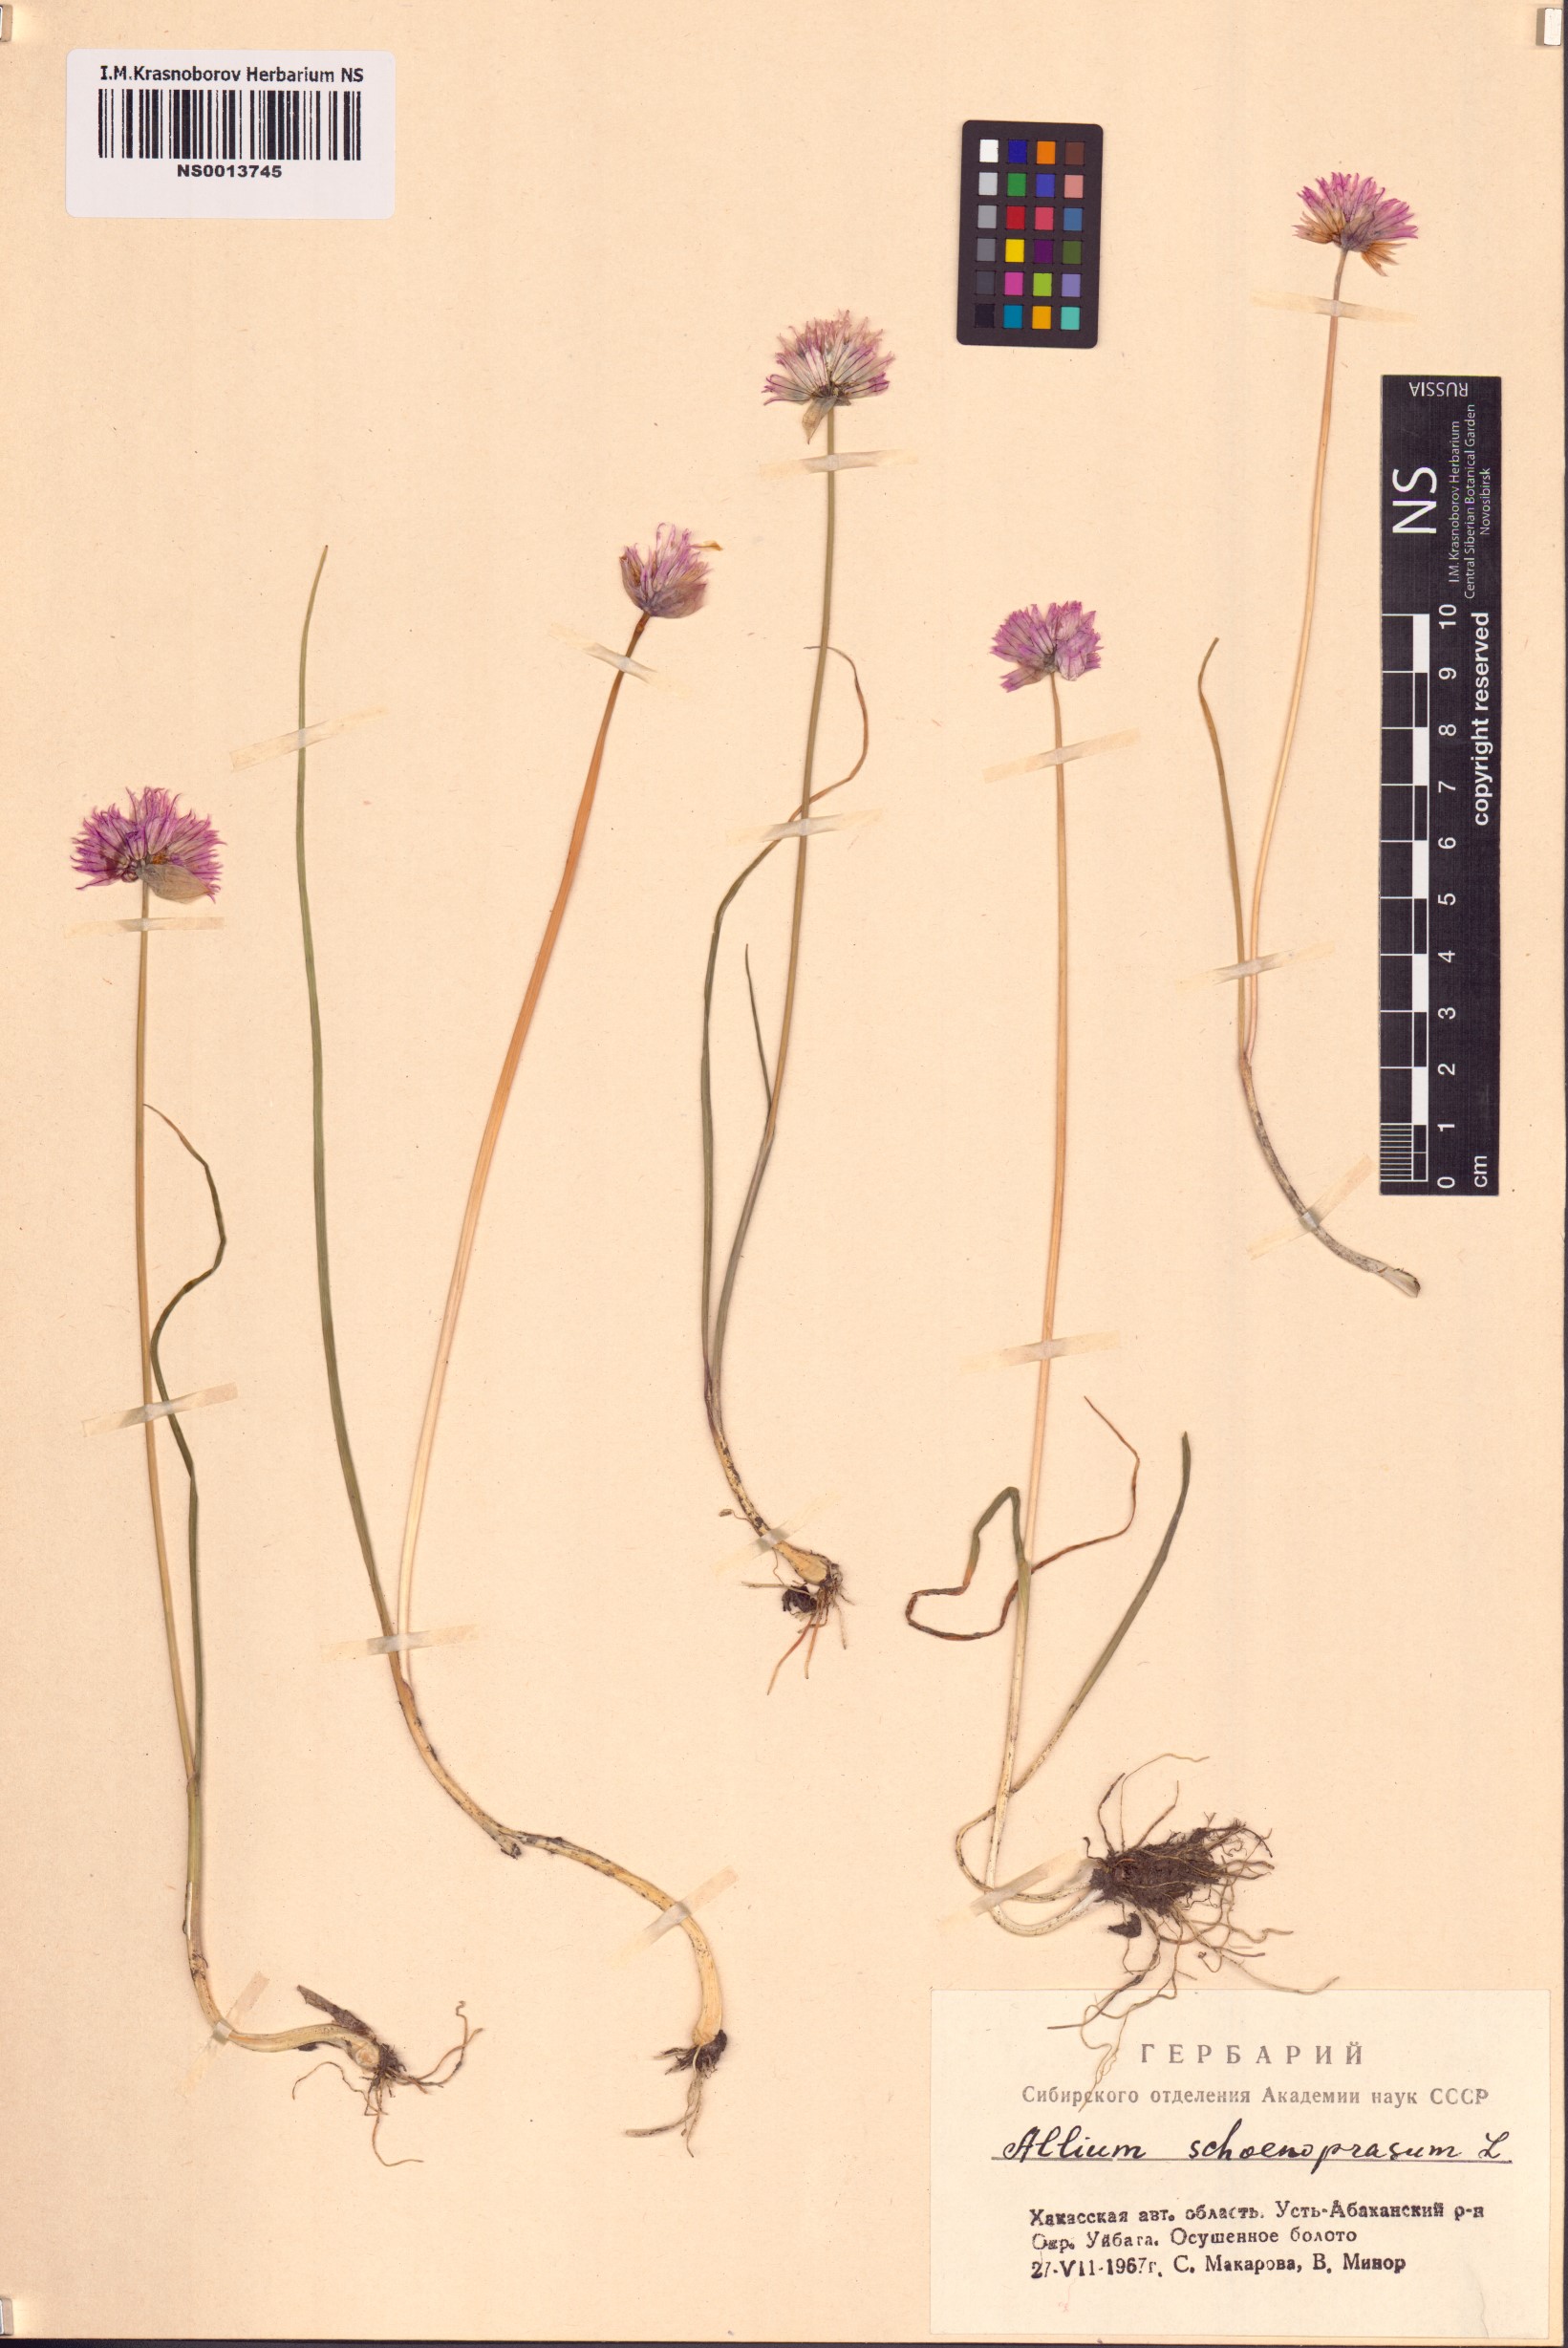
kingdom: Plantae
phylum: Tracheophyta
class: Liliopsida
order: Asparagales
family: Amaryllidaceae
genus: Allium
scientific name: Allium schoenoprasum
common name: Chives
